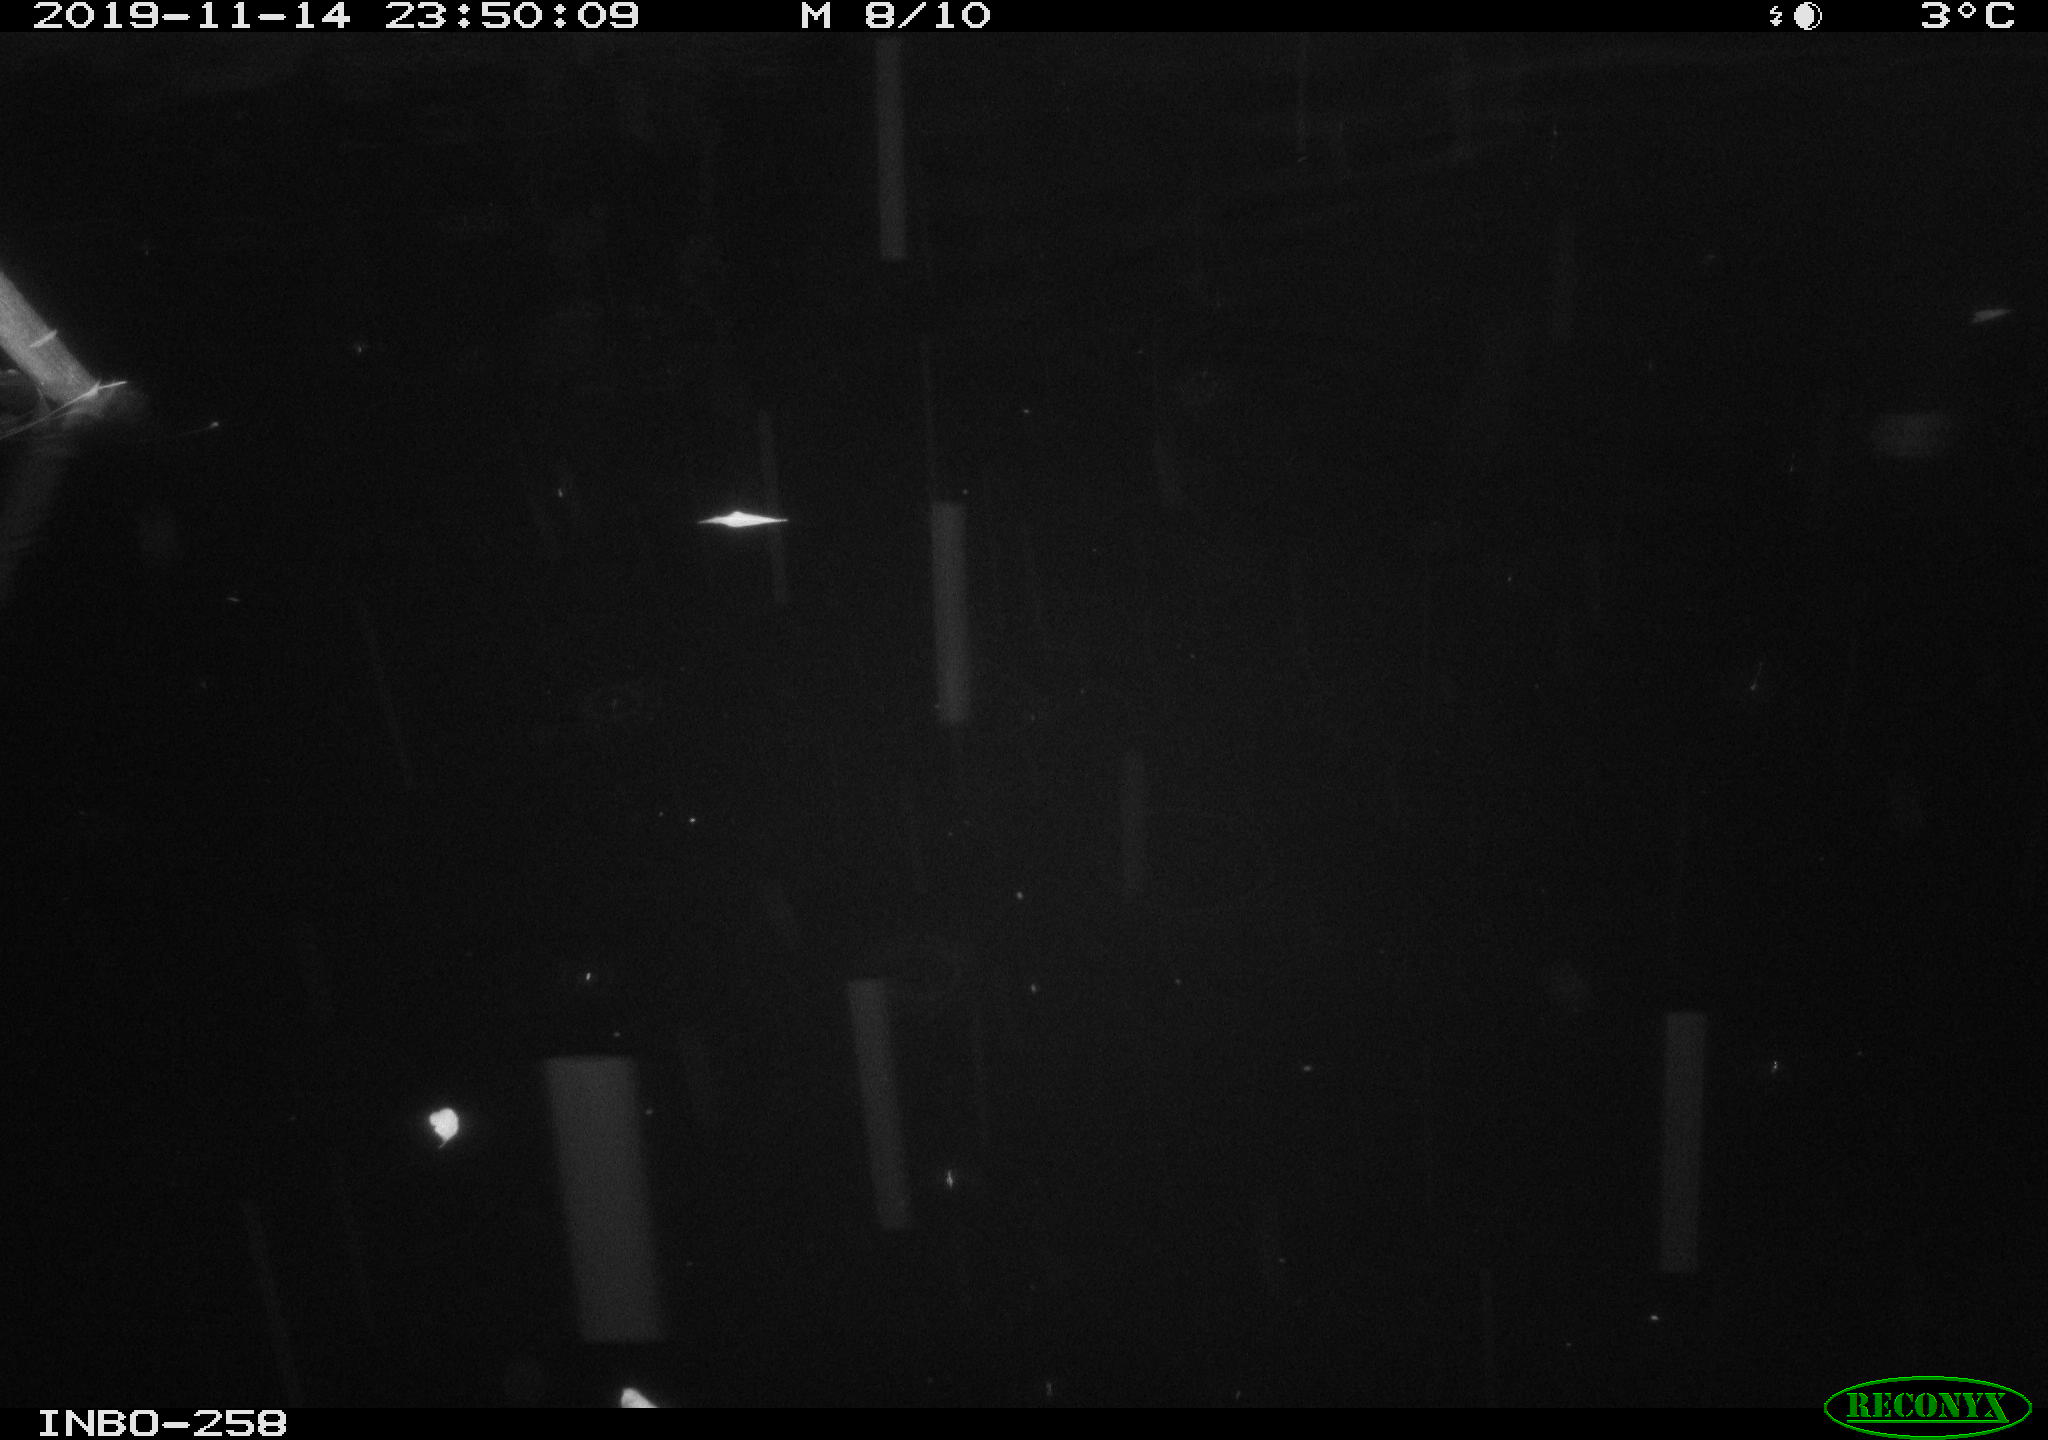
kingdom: Animalia
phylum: Chordata
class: Aves
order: Anseriformes
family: Anatidae
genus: Anas
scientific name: Anas platyrhynchos
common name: Mallard
